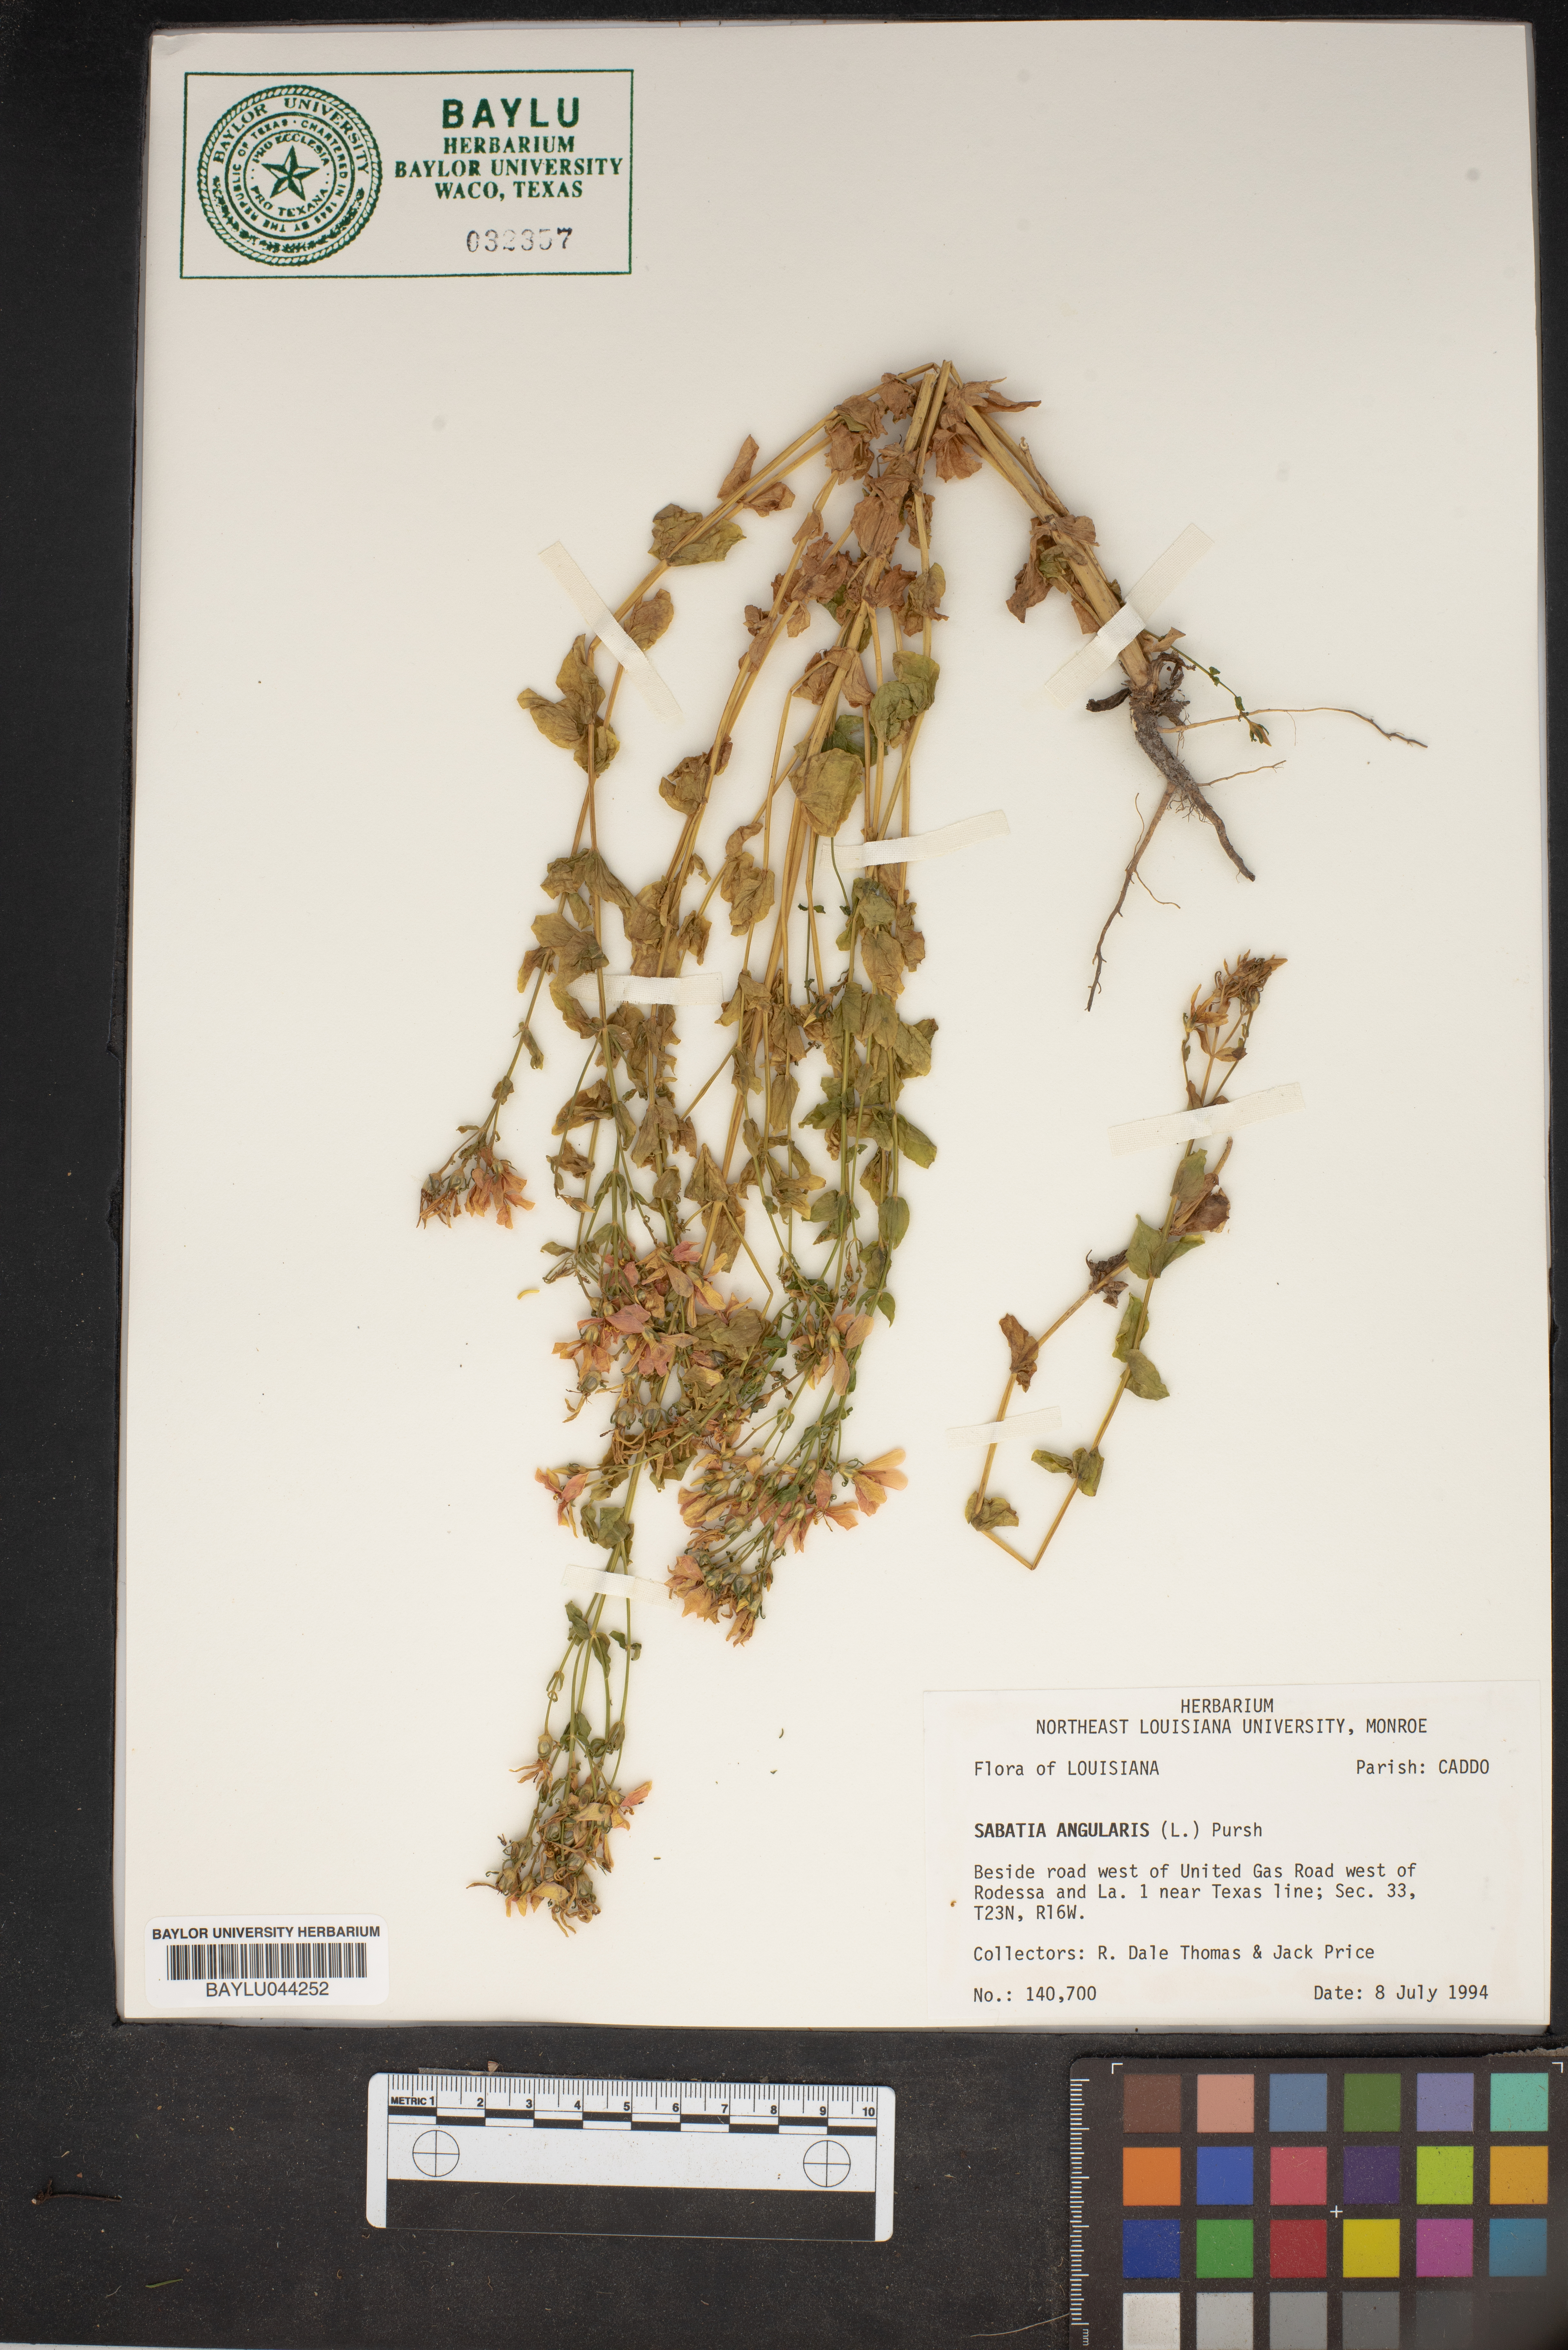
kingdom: Plantae
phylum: Tracheophyta
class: Magnoliopsida
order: Gentianales
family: Gentianaceae
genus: Sabatia
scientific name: Sabatia angularis
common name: Rose-pink
